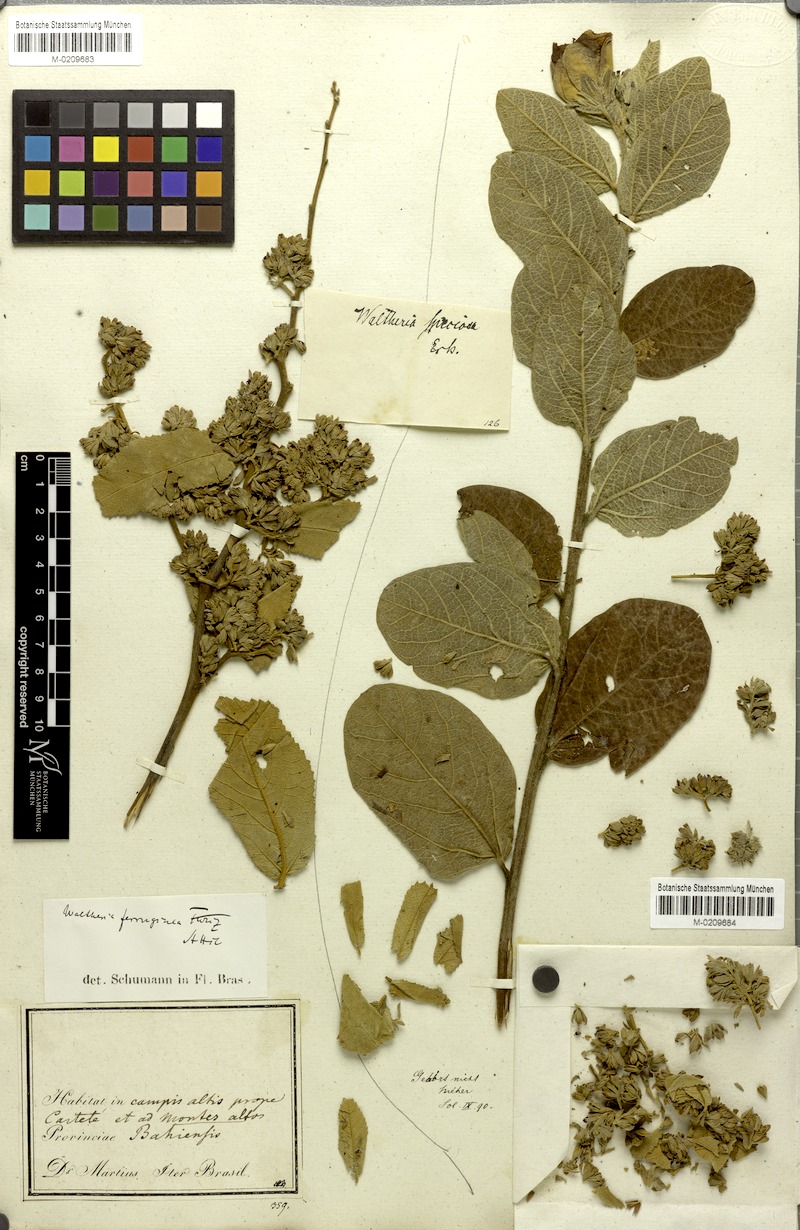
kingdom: Plantae
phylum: Tracheophyta
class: Magnoliopsida
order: Malvales
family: Malvaceae
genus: Waltheria
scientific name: Waltheria ferruginea
